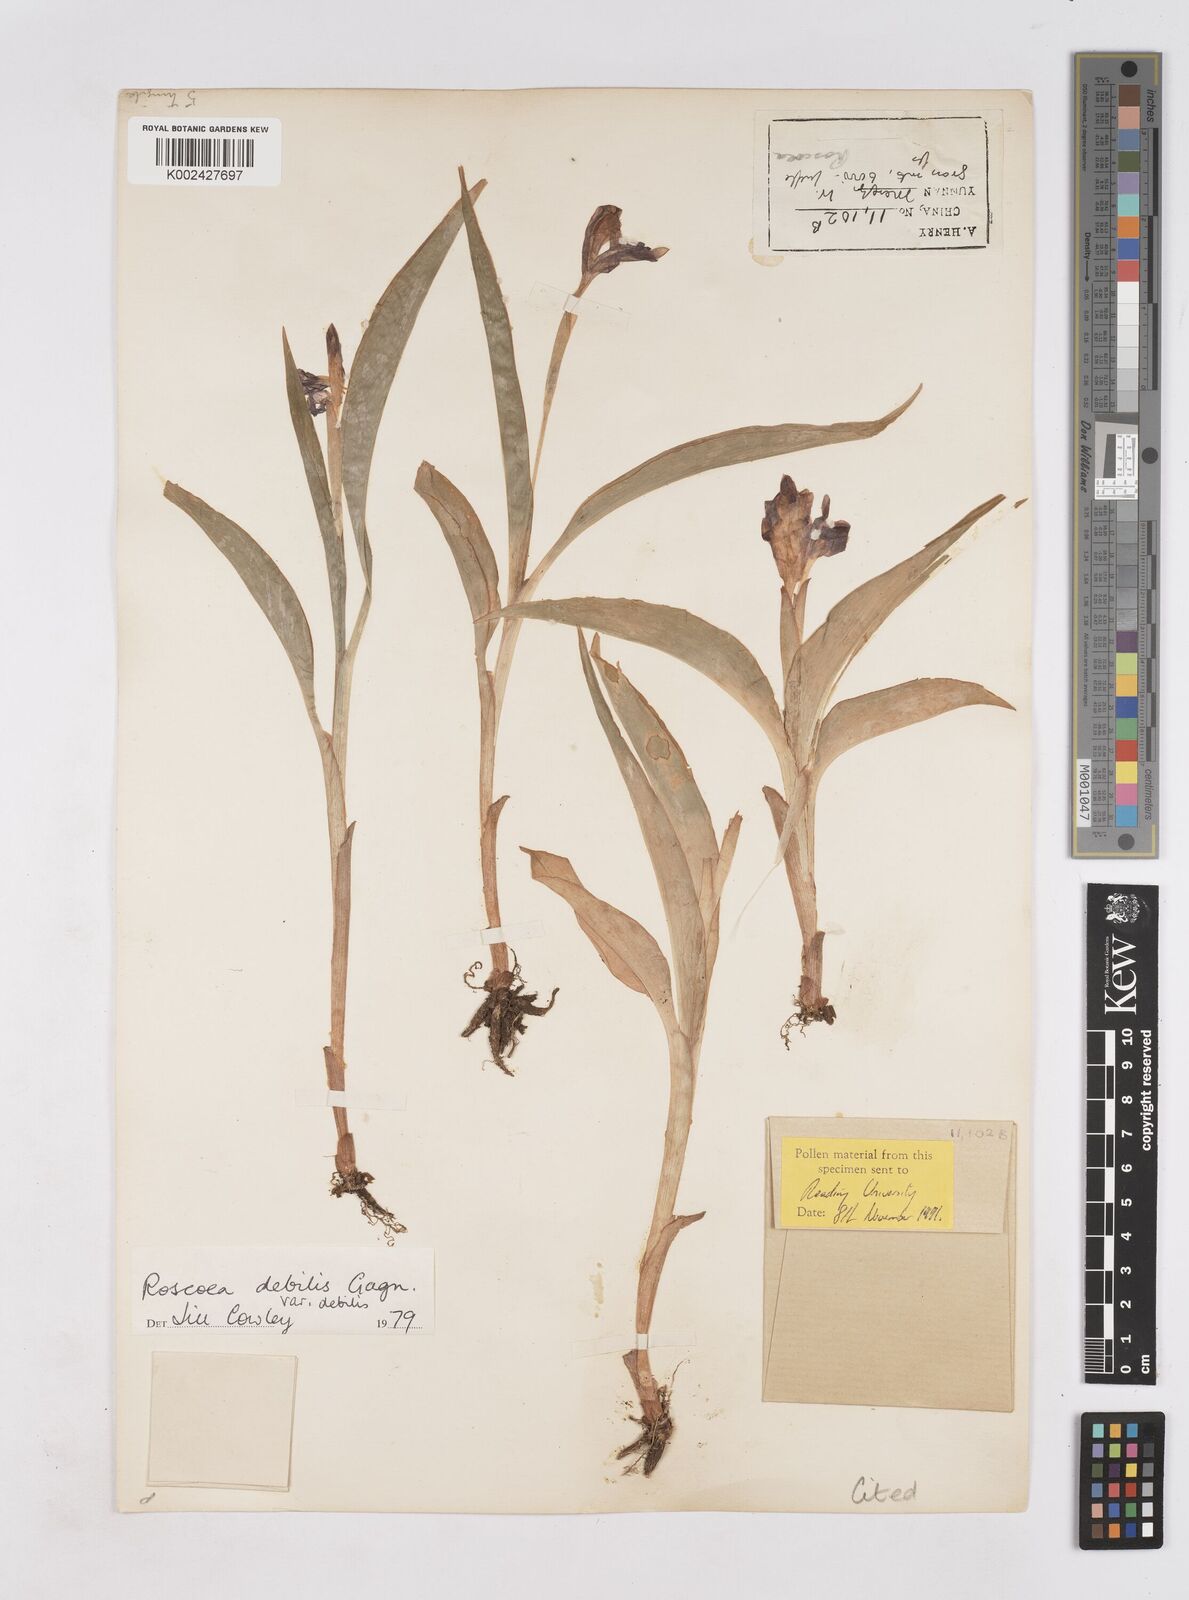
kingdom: Plantae
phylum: Tracheophyta
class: Liliopsida
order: Zingiberales
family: Zingiberaceae
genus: Roscoea
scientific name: Roscoea debilis
